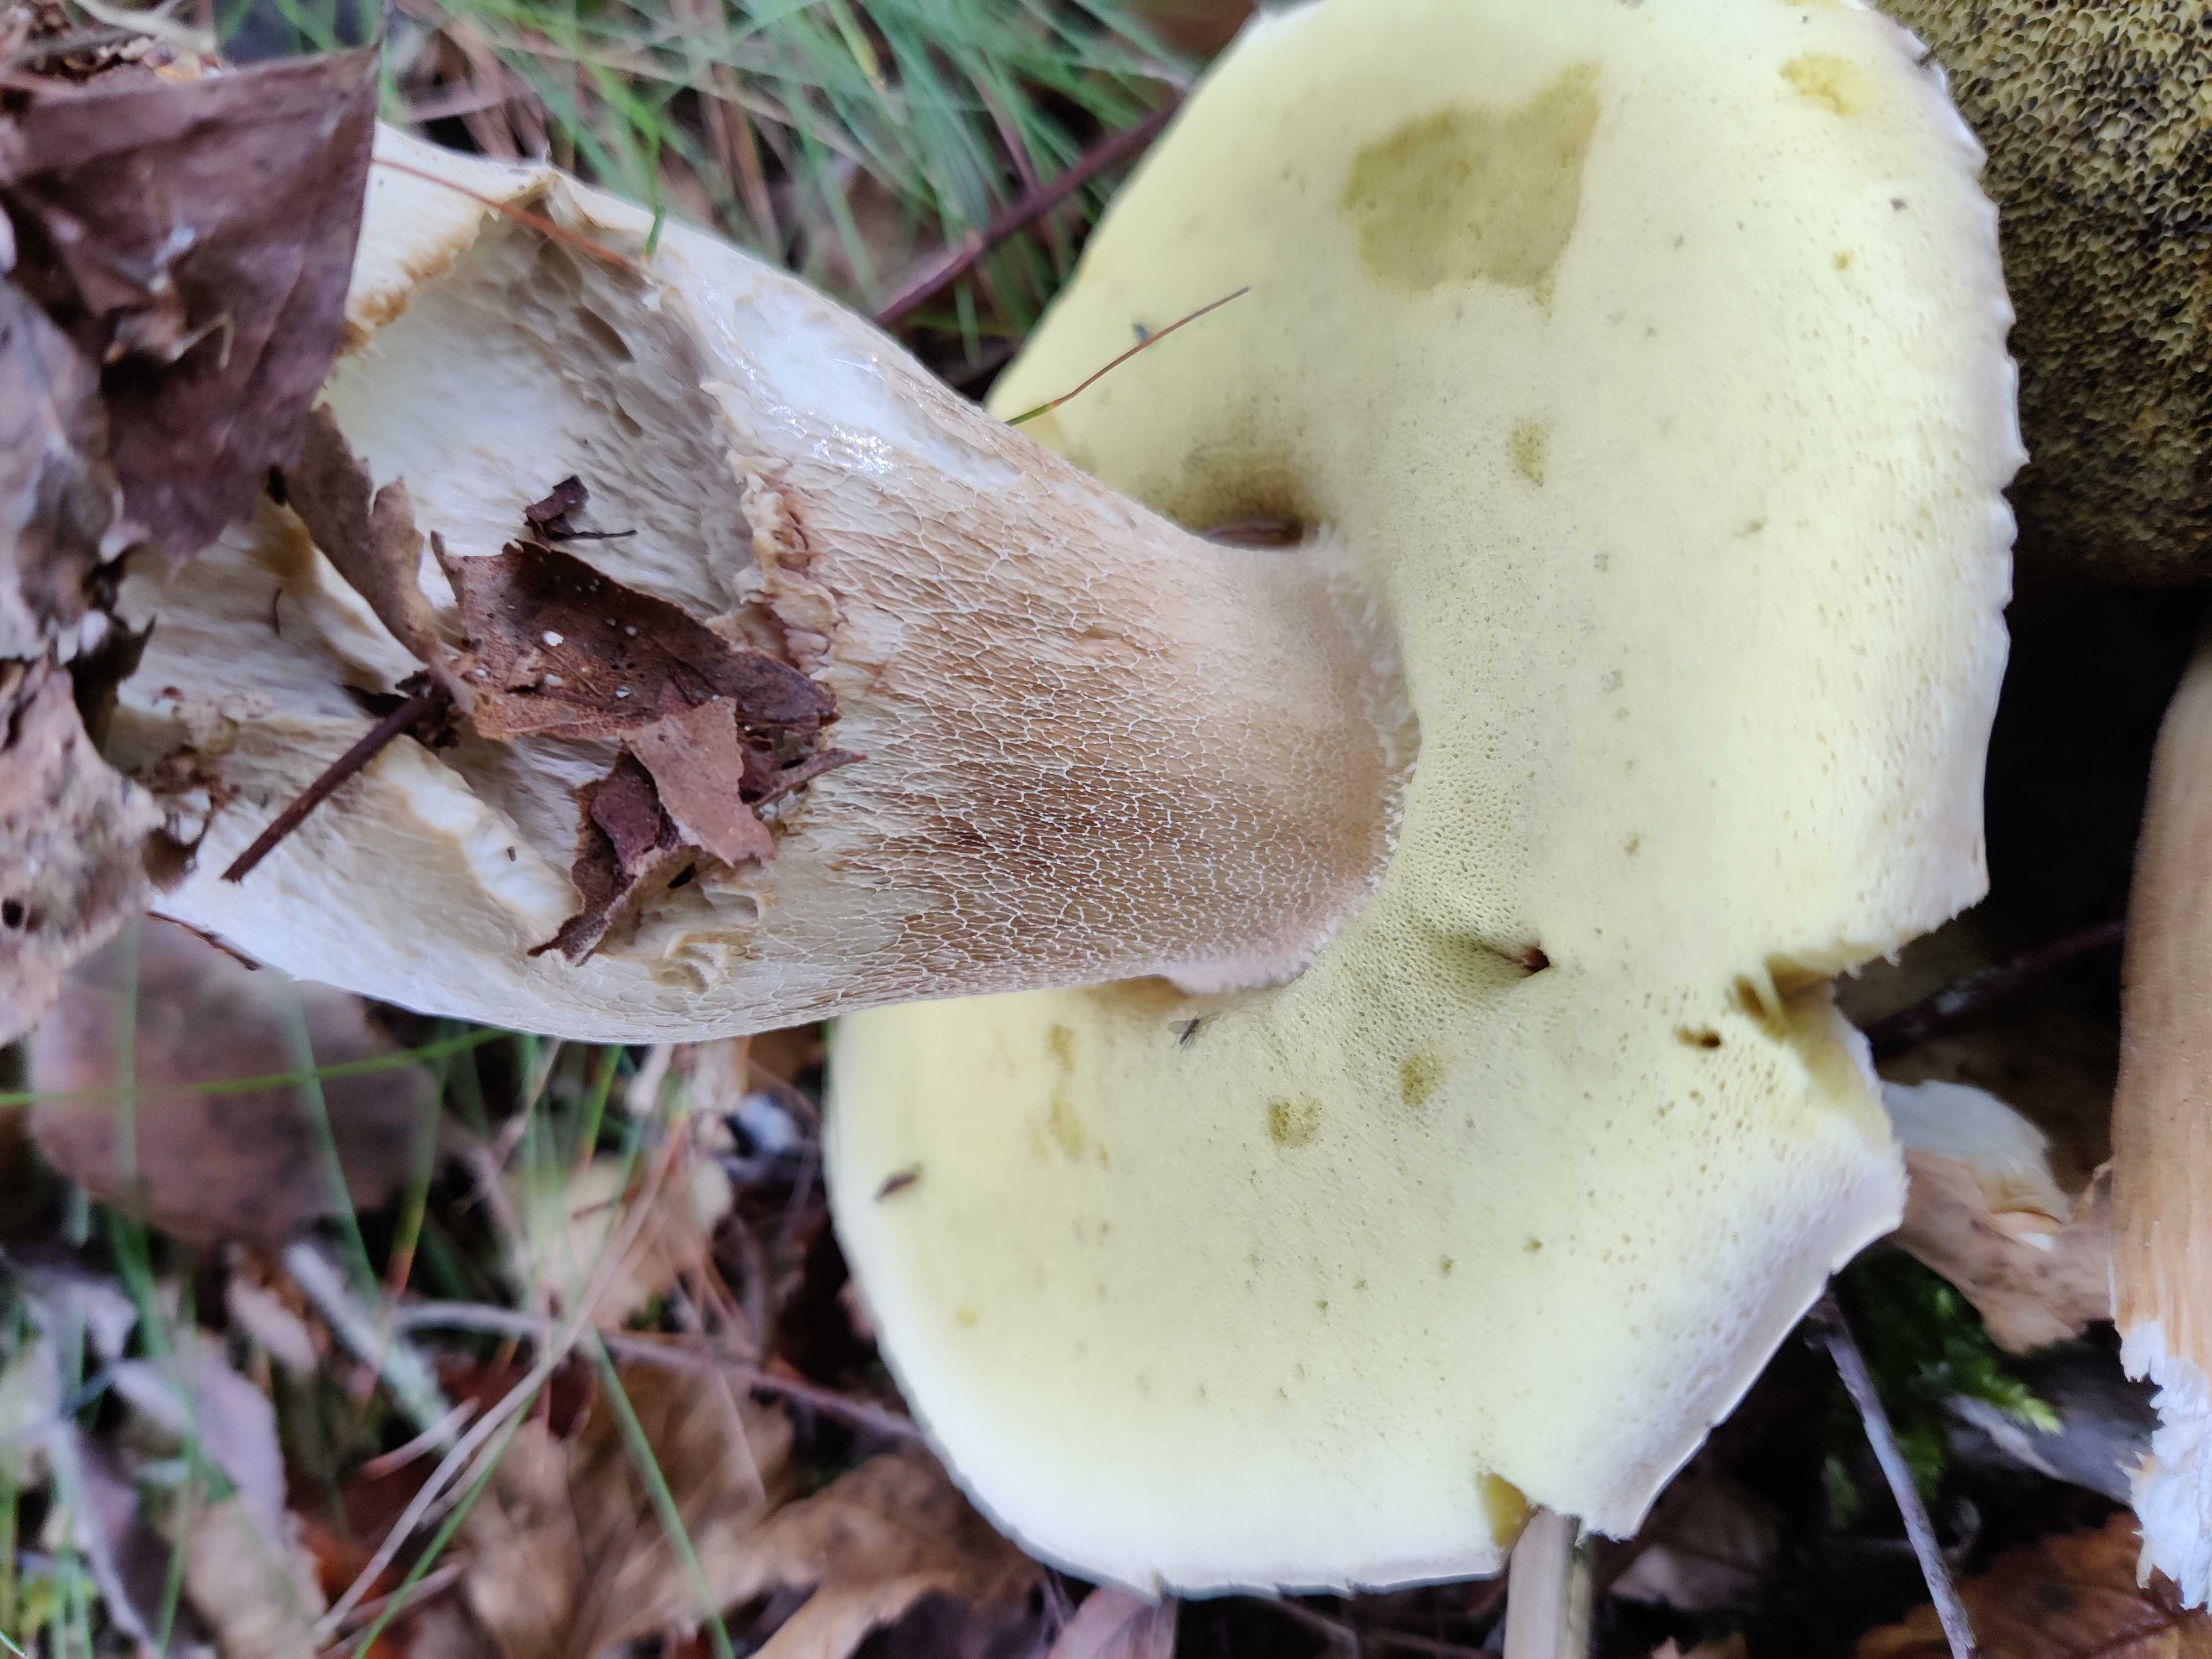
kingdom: Fungi
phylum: Basidiomycota
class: Agaricomycetes
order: Boletales
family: Boletaceae
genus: Boletus
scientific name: Boletus edulis
